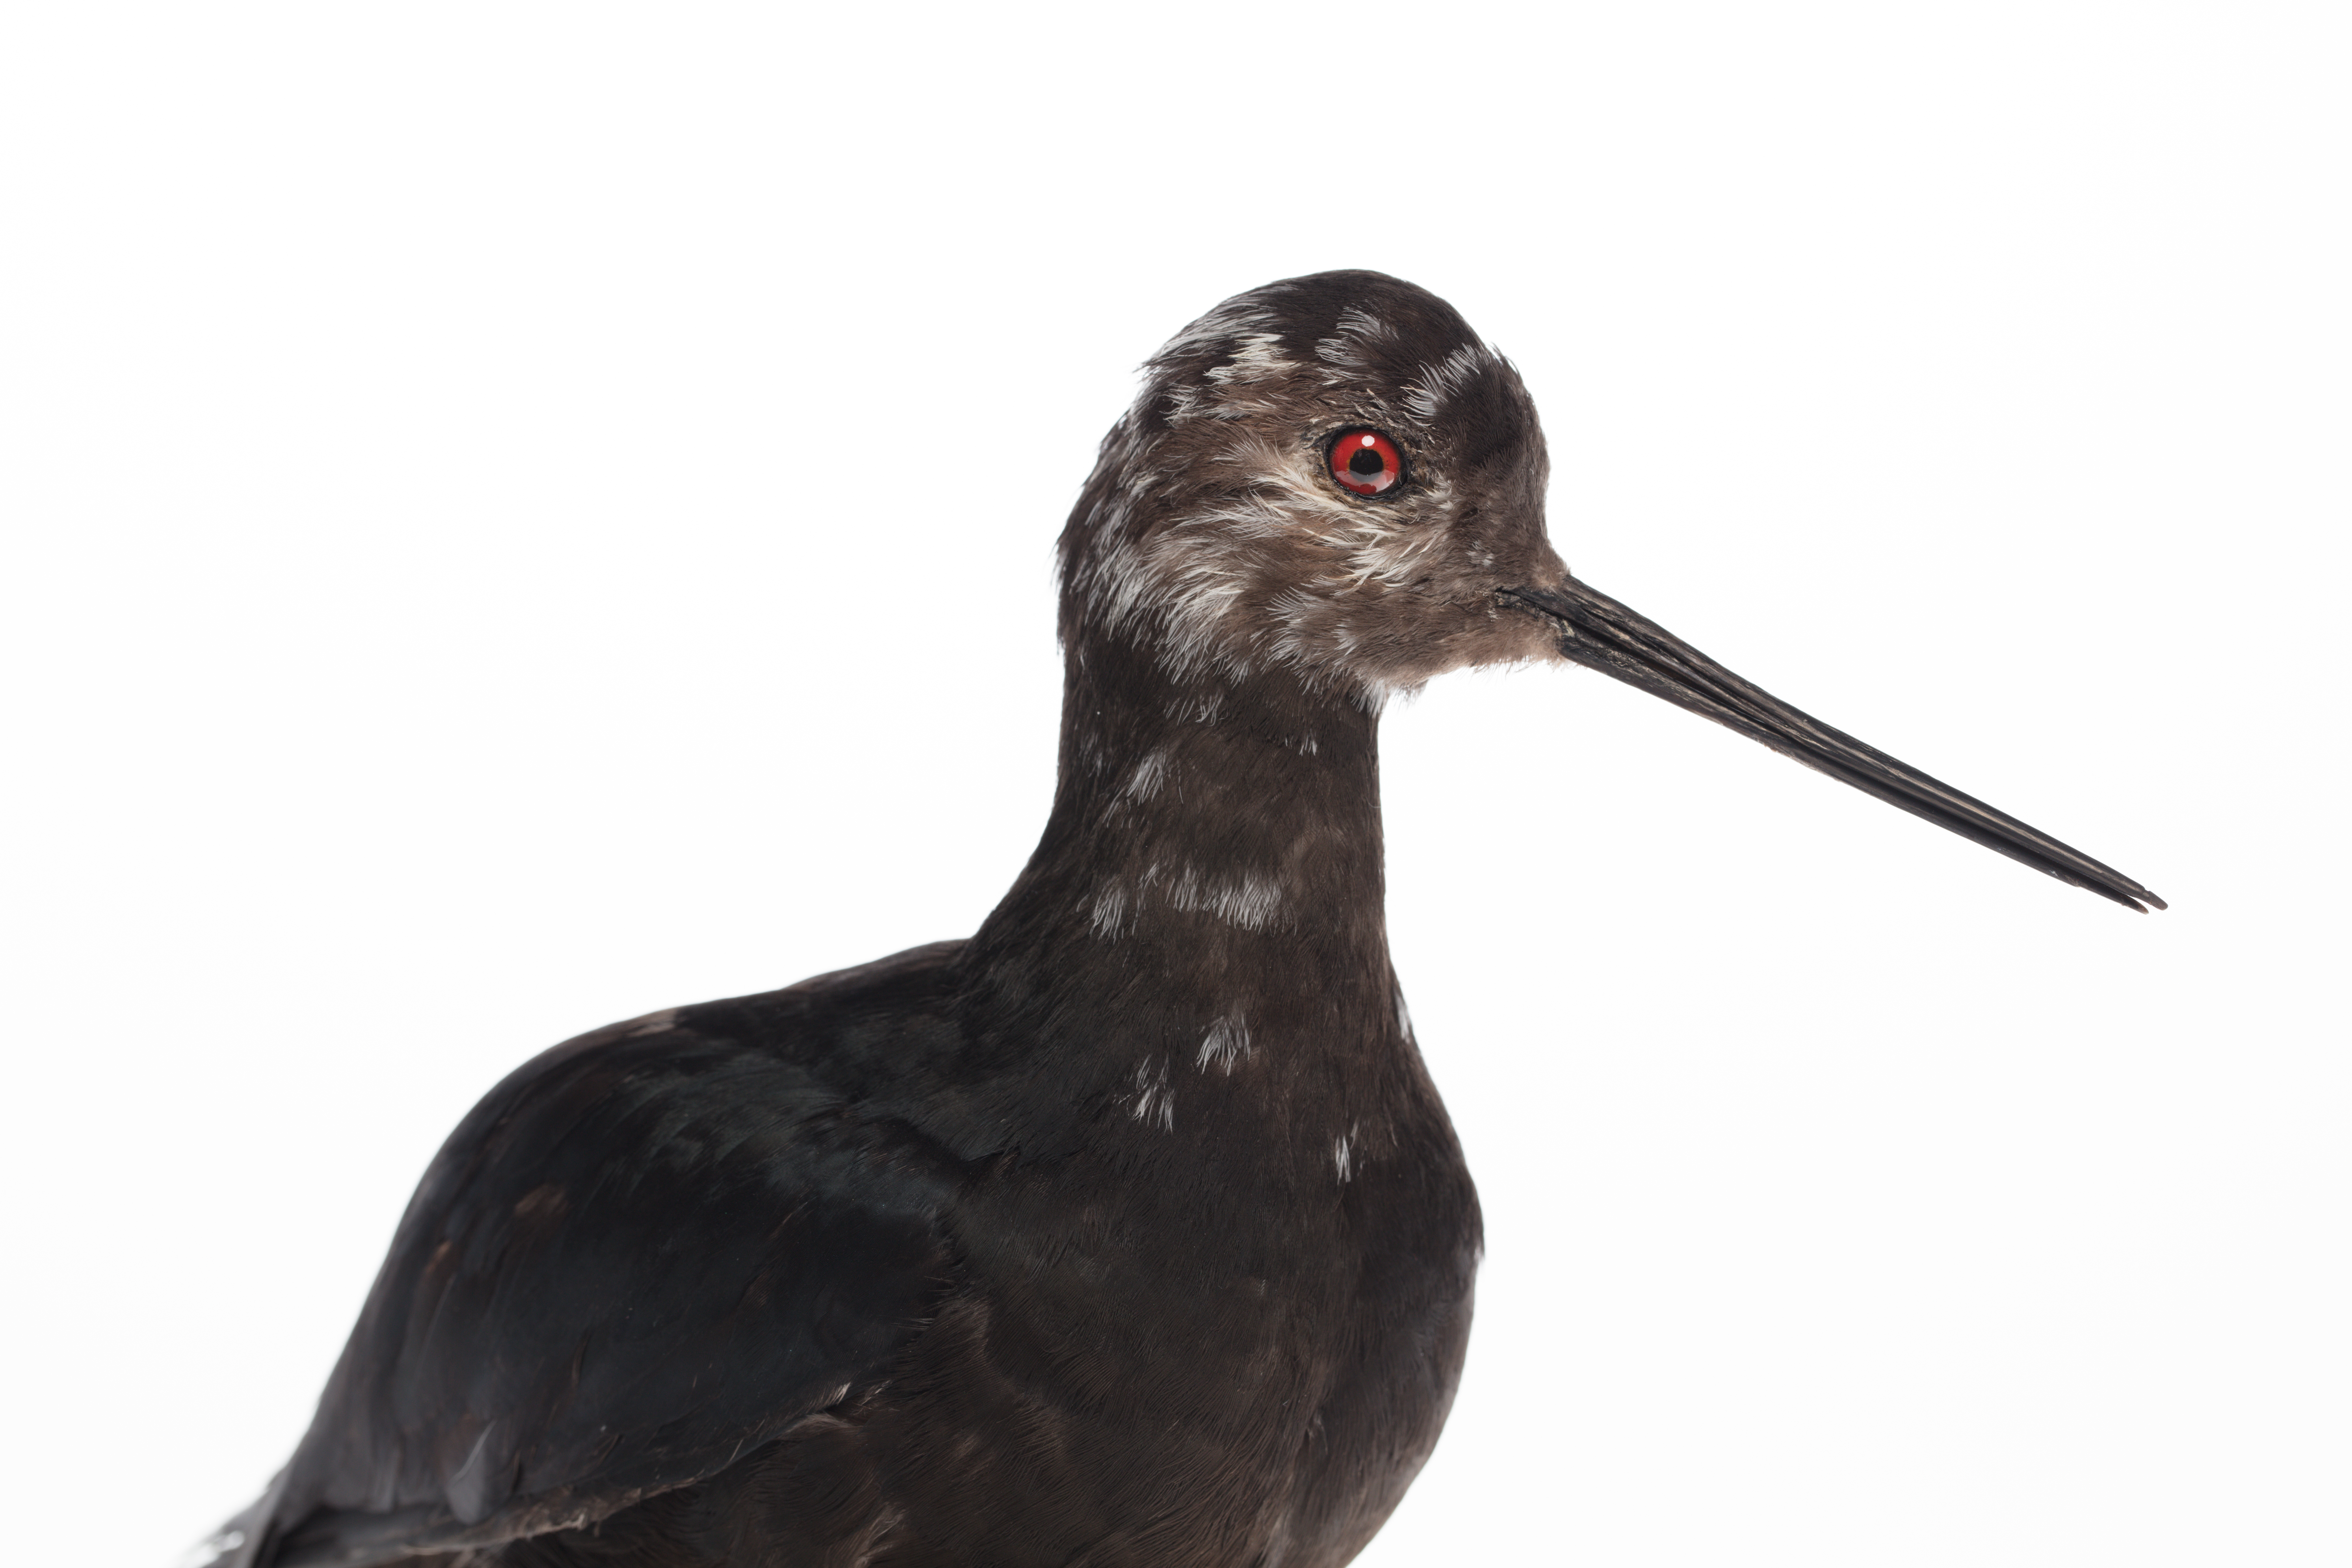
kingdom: Animalia
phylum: Chordata
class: Aves
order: Charadriiformes
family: Recurvirostridae
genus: Himantopus
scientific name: Himantopus novaezelandiae
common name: Black stilt
